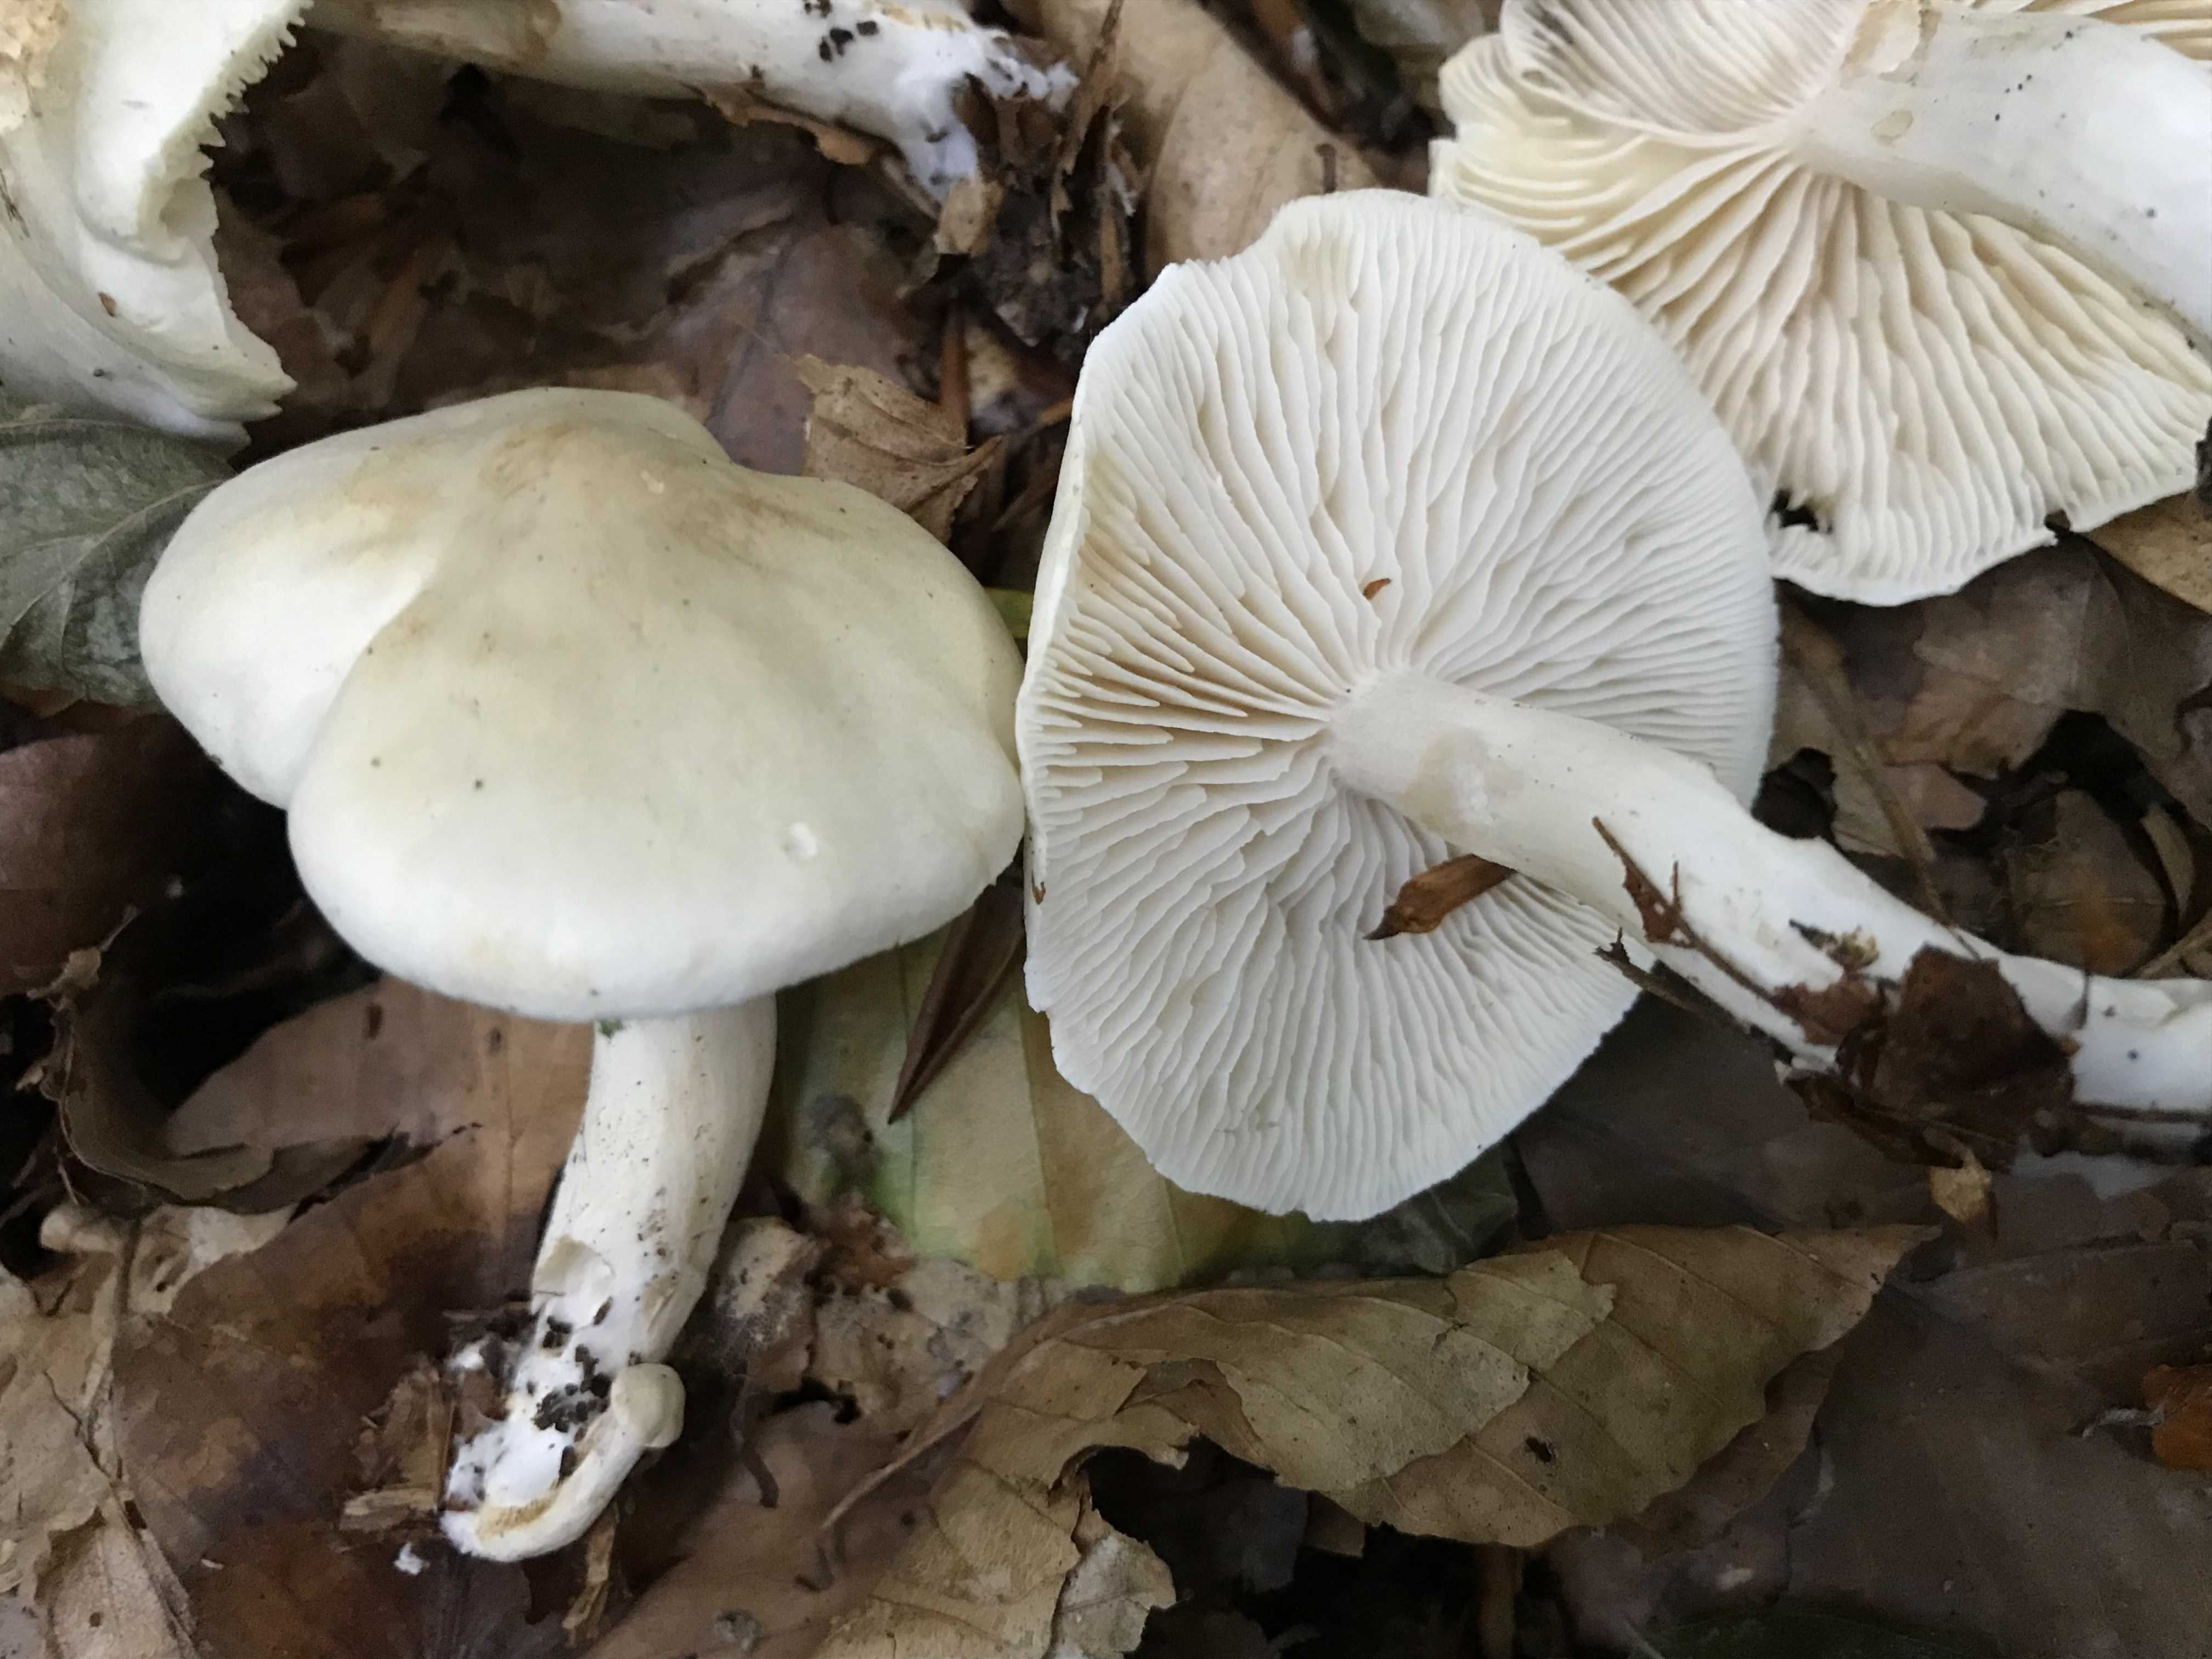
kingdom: Fungi
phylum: Basidiomycota
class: Agaricomycetes
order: Agaricales
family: Tricholomataceae
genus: Tricholoma
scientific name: Tricholoma lascivum
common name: stinkende ridderhat
